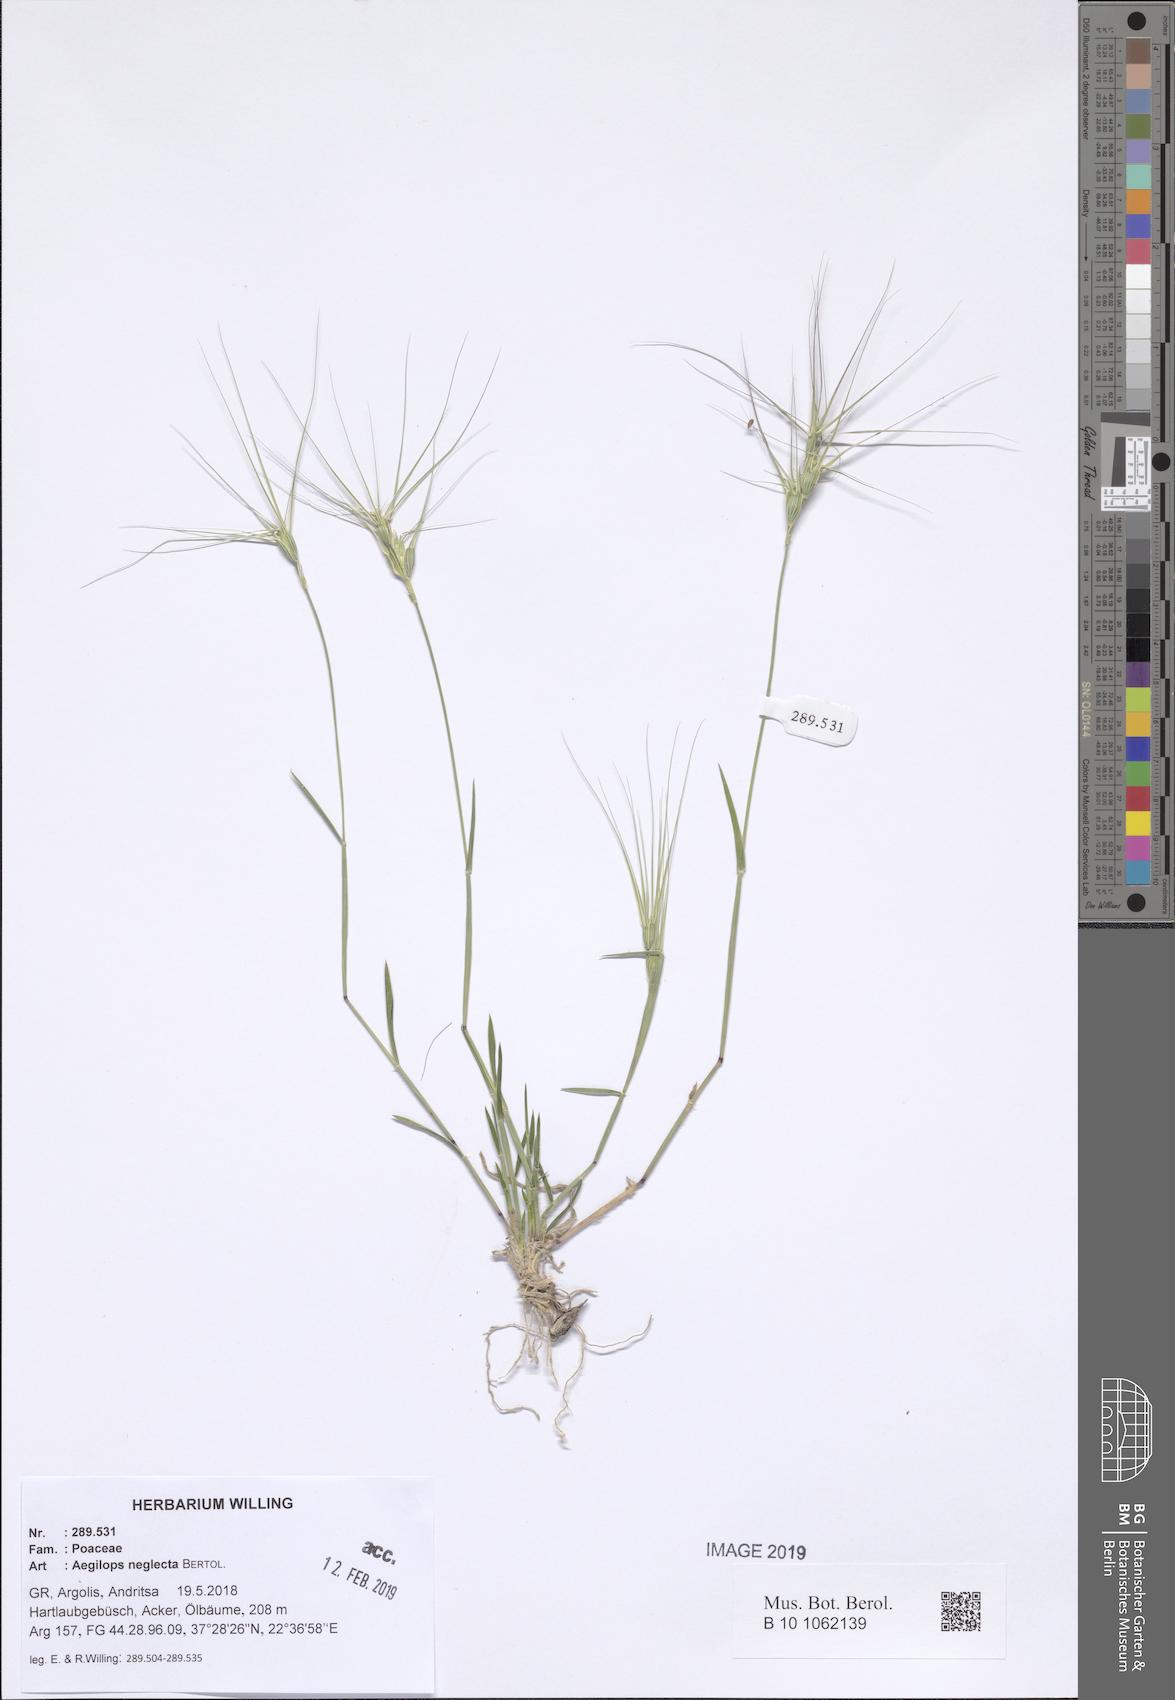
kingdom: Plantae
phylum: Tracheophyta
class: Liliopsida
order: Poales
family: Poaceae
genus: Aegilops
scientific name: Aegilops neglecta
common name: Three-awn goat grass
